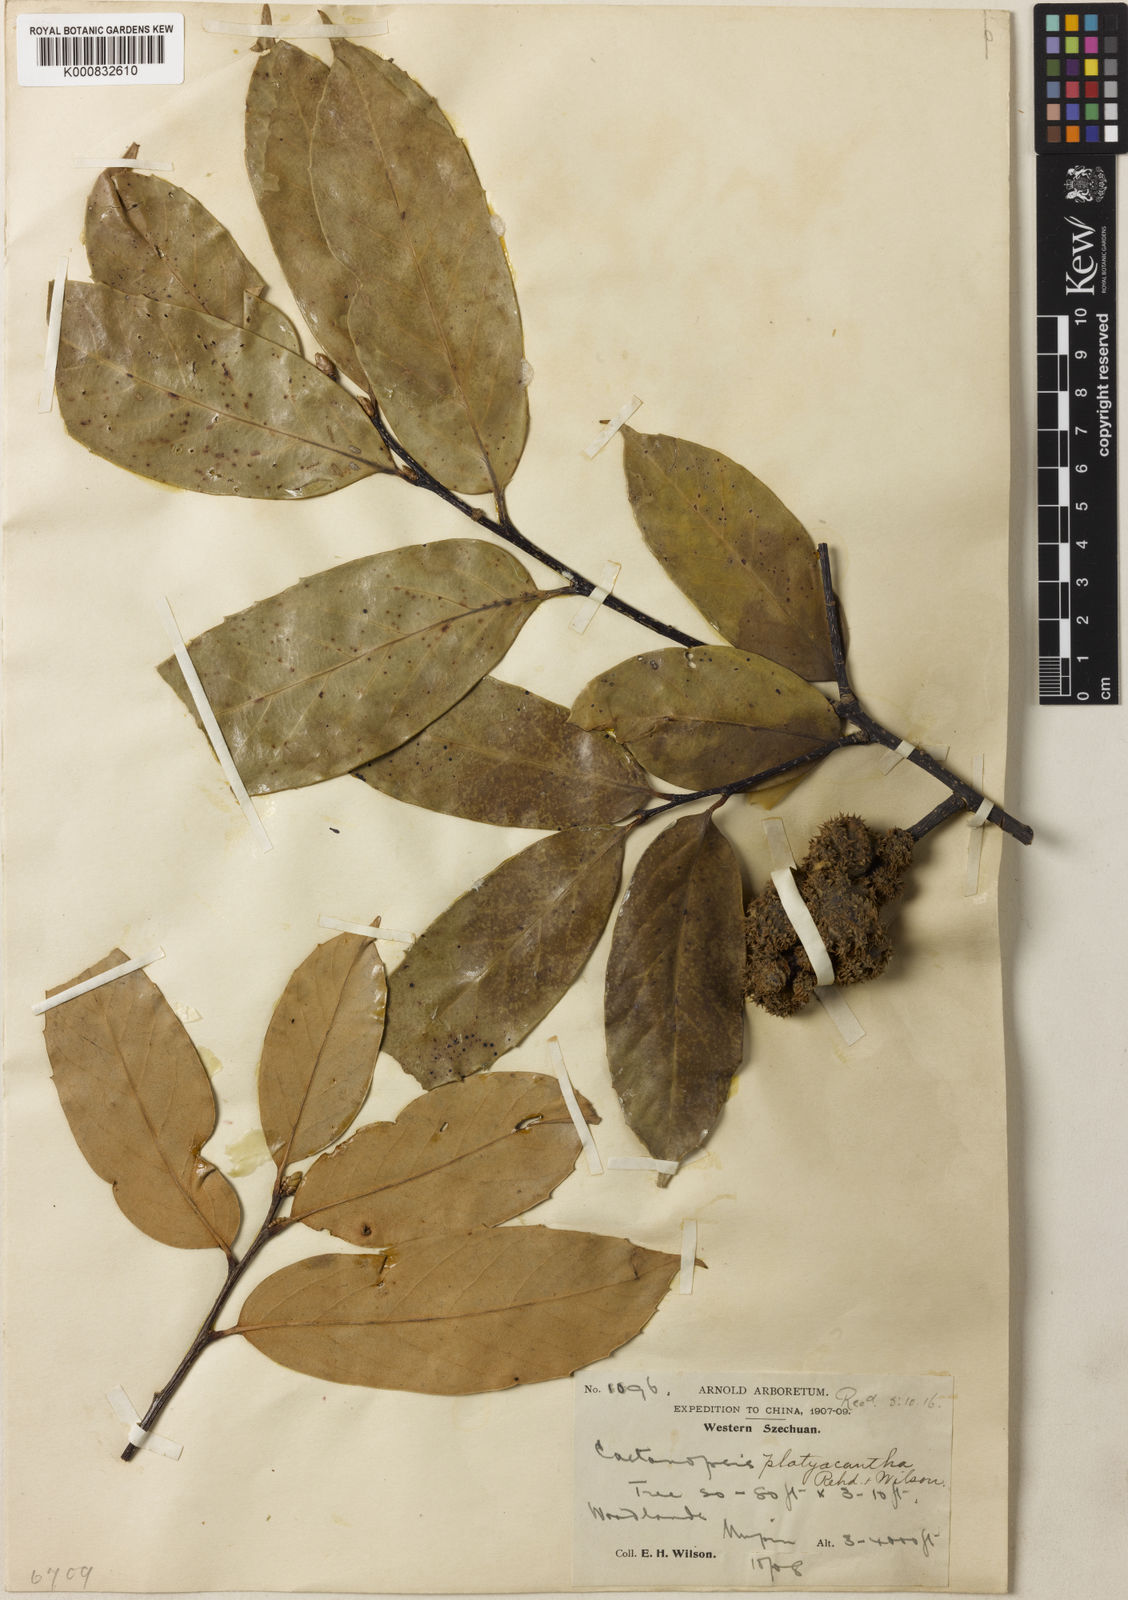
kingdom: Plantae
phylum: Tracheophyta
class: Magnoliopsida
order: Fagales
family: Fagaceae
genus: Castanopsis
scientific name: Castanopsis platyacantha
